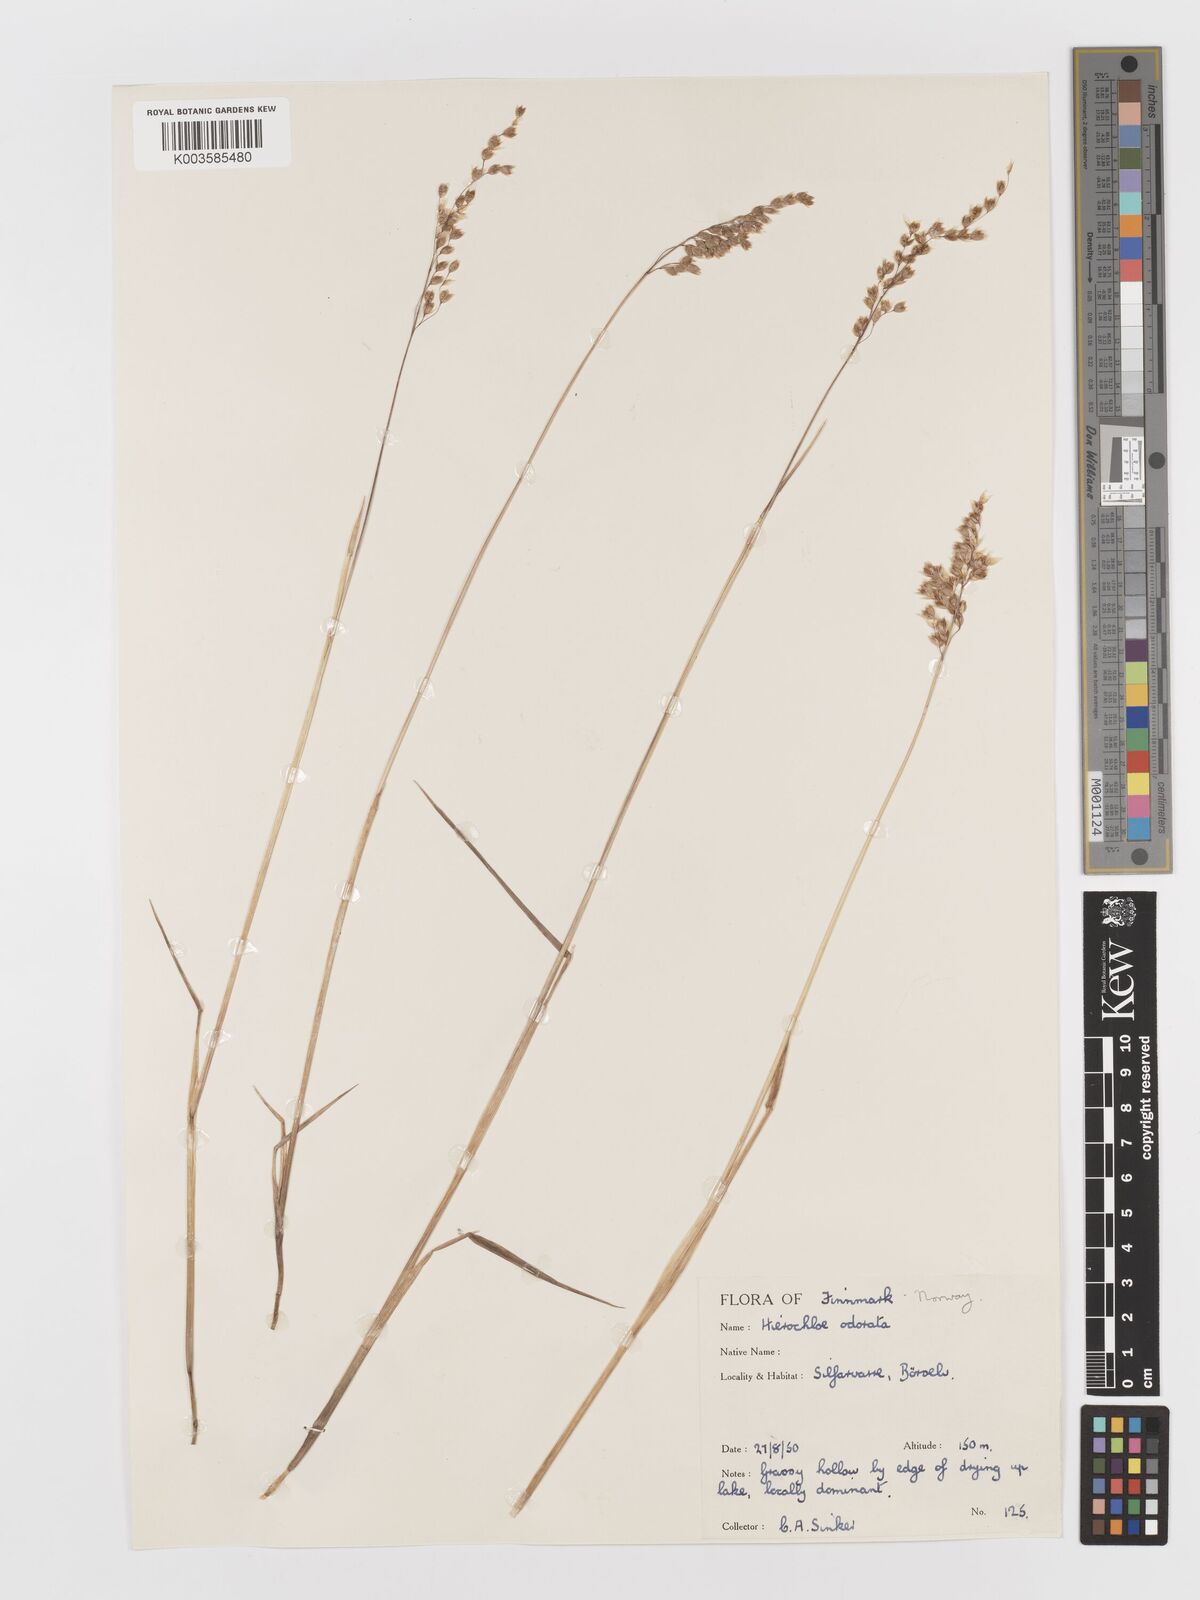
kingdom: Plantae
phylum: Tracheophyta
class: Liliopsida
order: Poales
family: Poaceae
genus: Anthoxanthum
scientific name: Anthoxanthum nitens
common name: Holy grass
